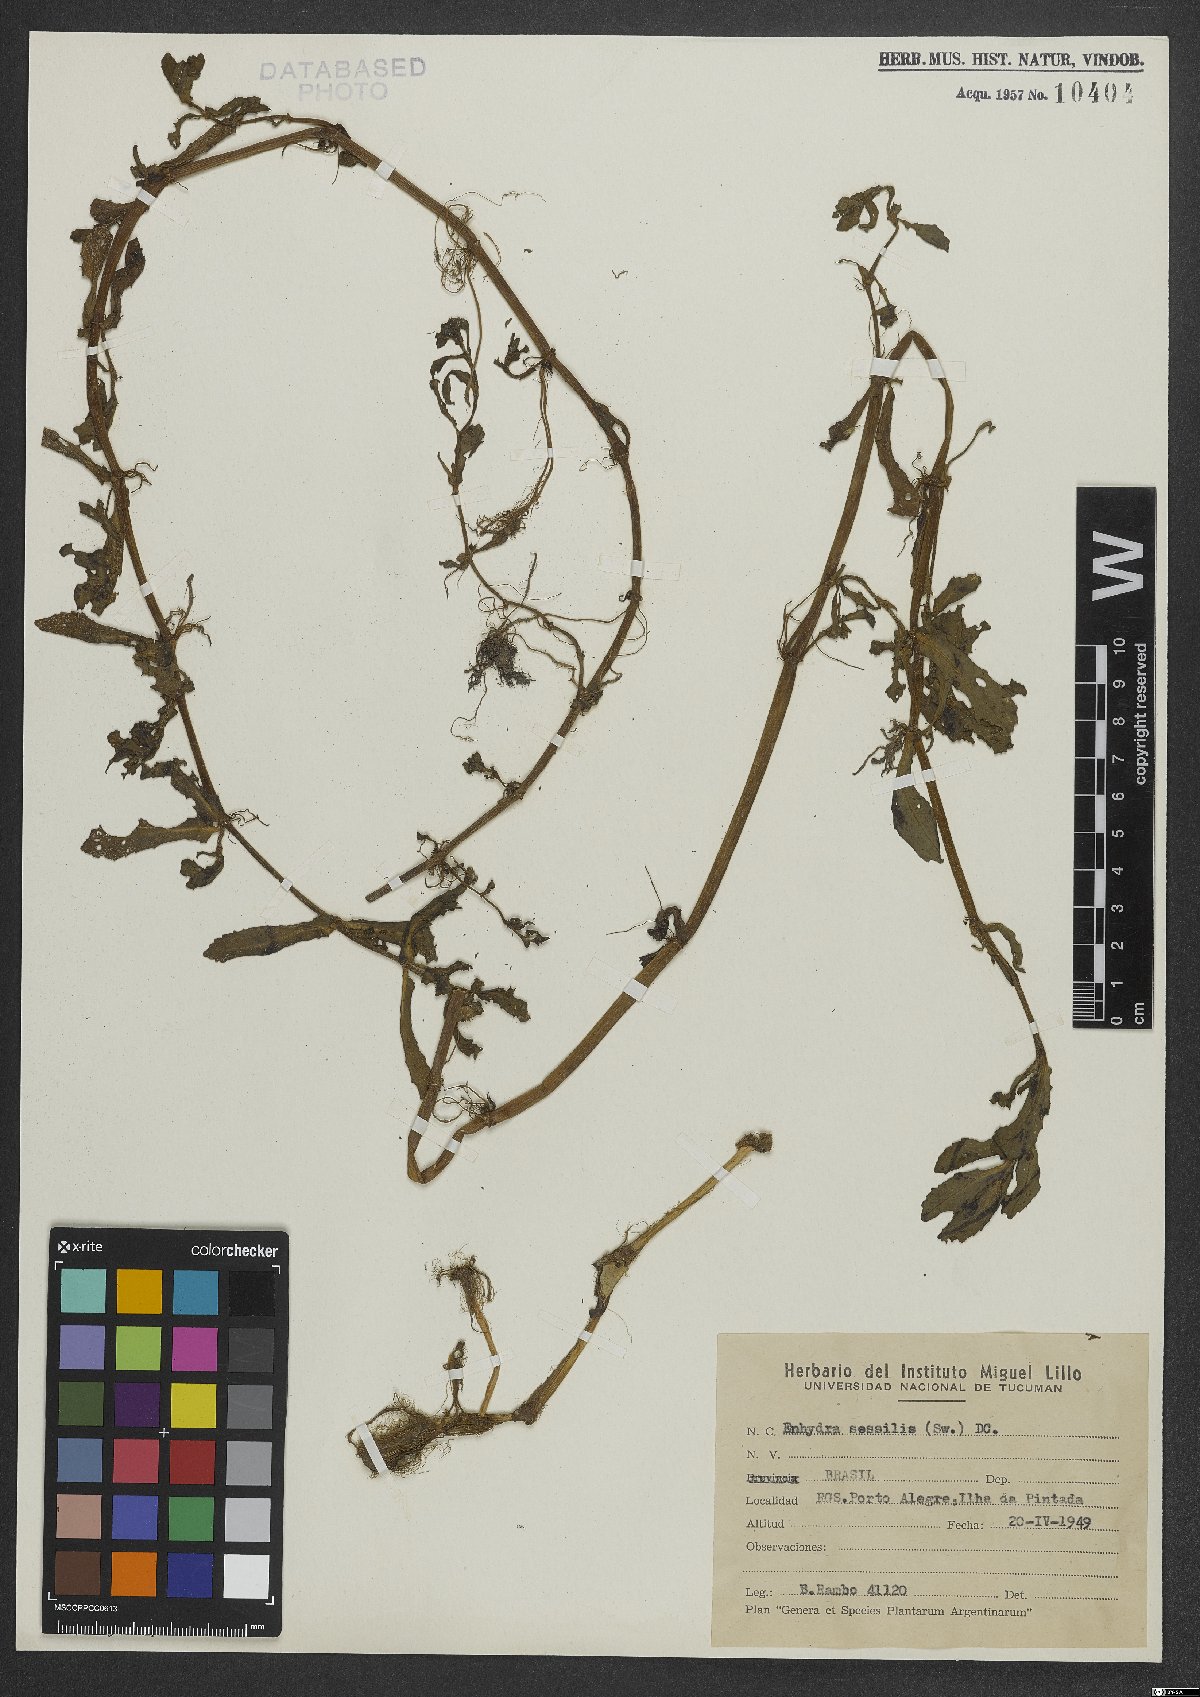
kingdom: Plantae
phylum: Tracheophyta
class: Magnoliopsida
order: Asterales
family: Asteraceae
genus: Enydra
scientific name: Enydra sessilis
